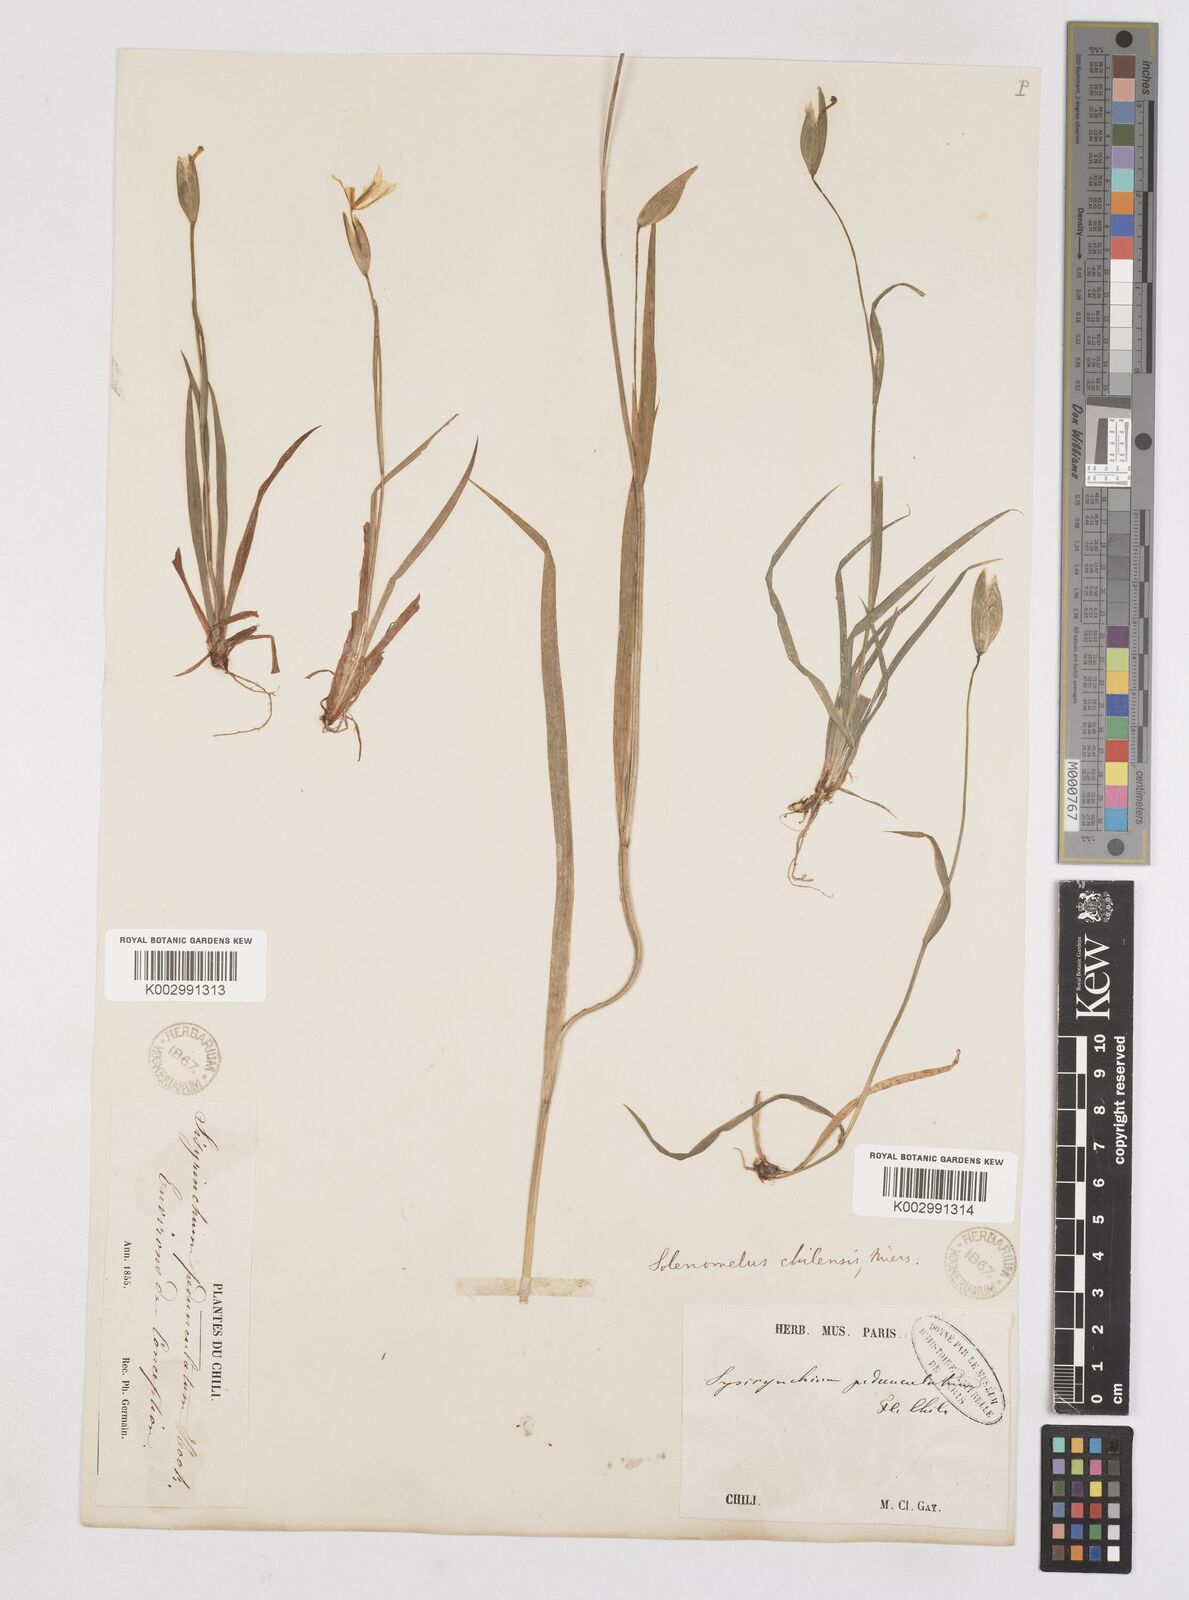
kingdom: Plantae
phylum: Tracheophyta
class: Liliopsida
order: Asparagales
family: Iridaceae
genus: Solenomelus
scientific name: Solenomelus pedunculatus
